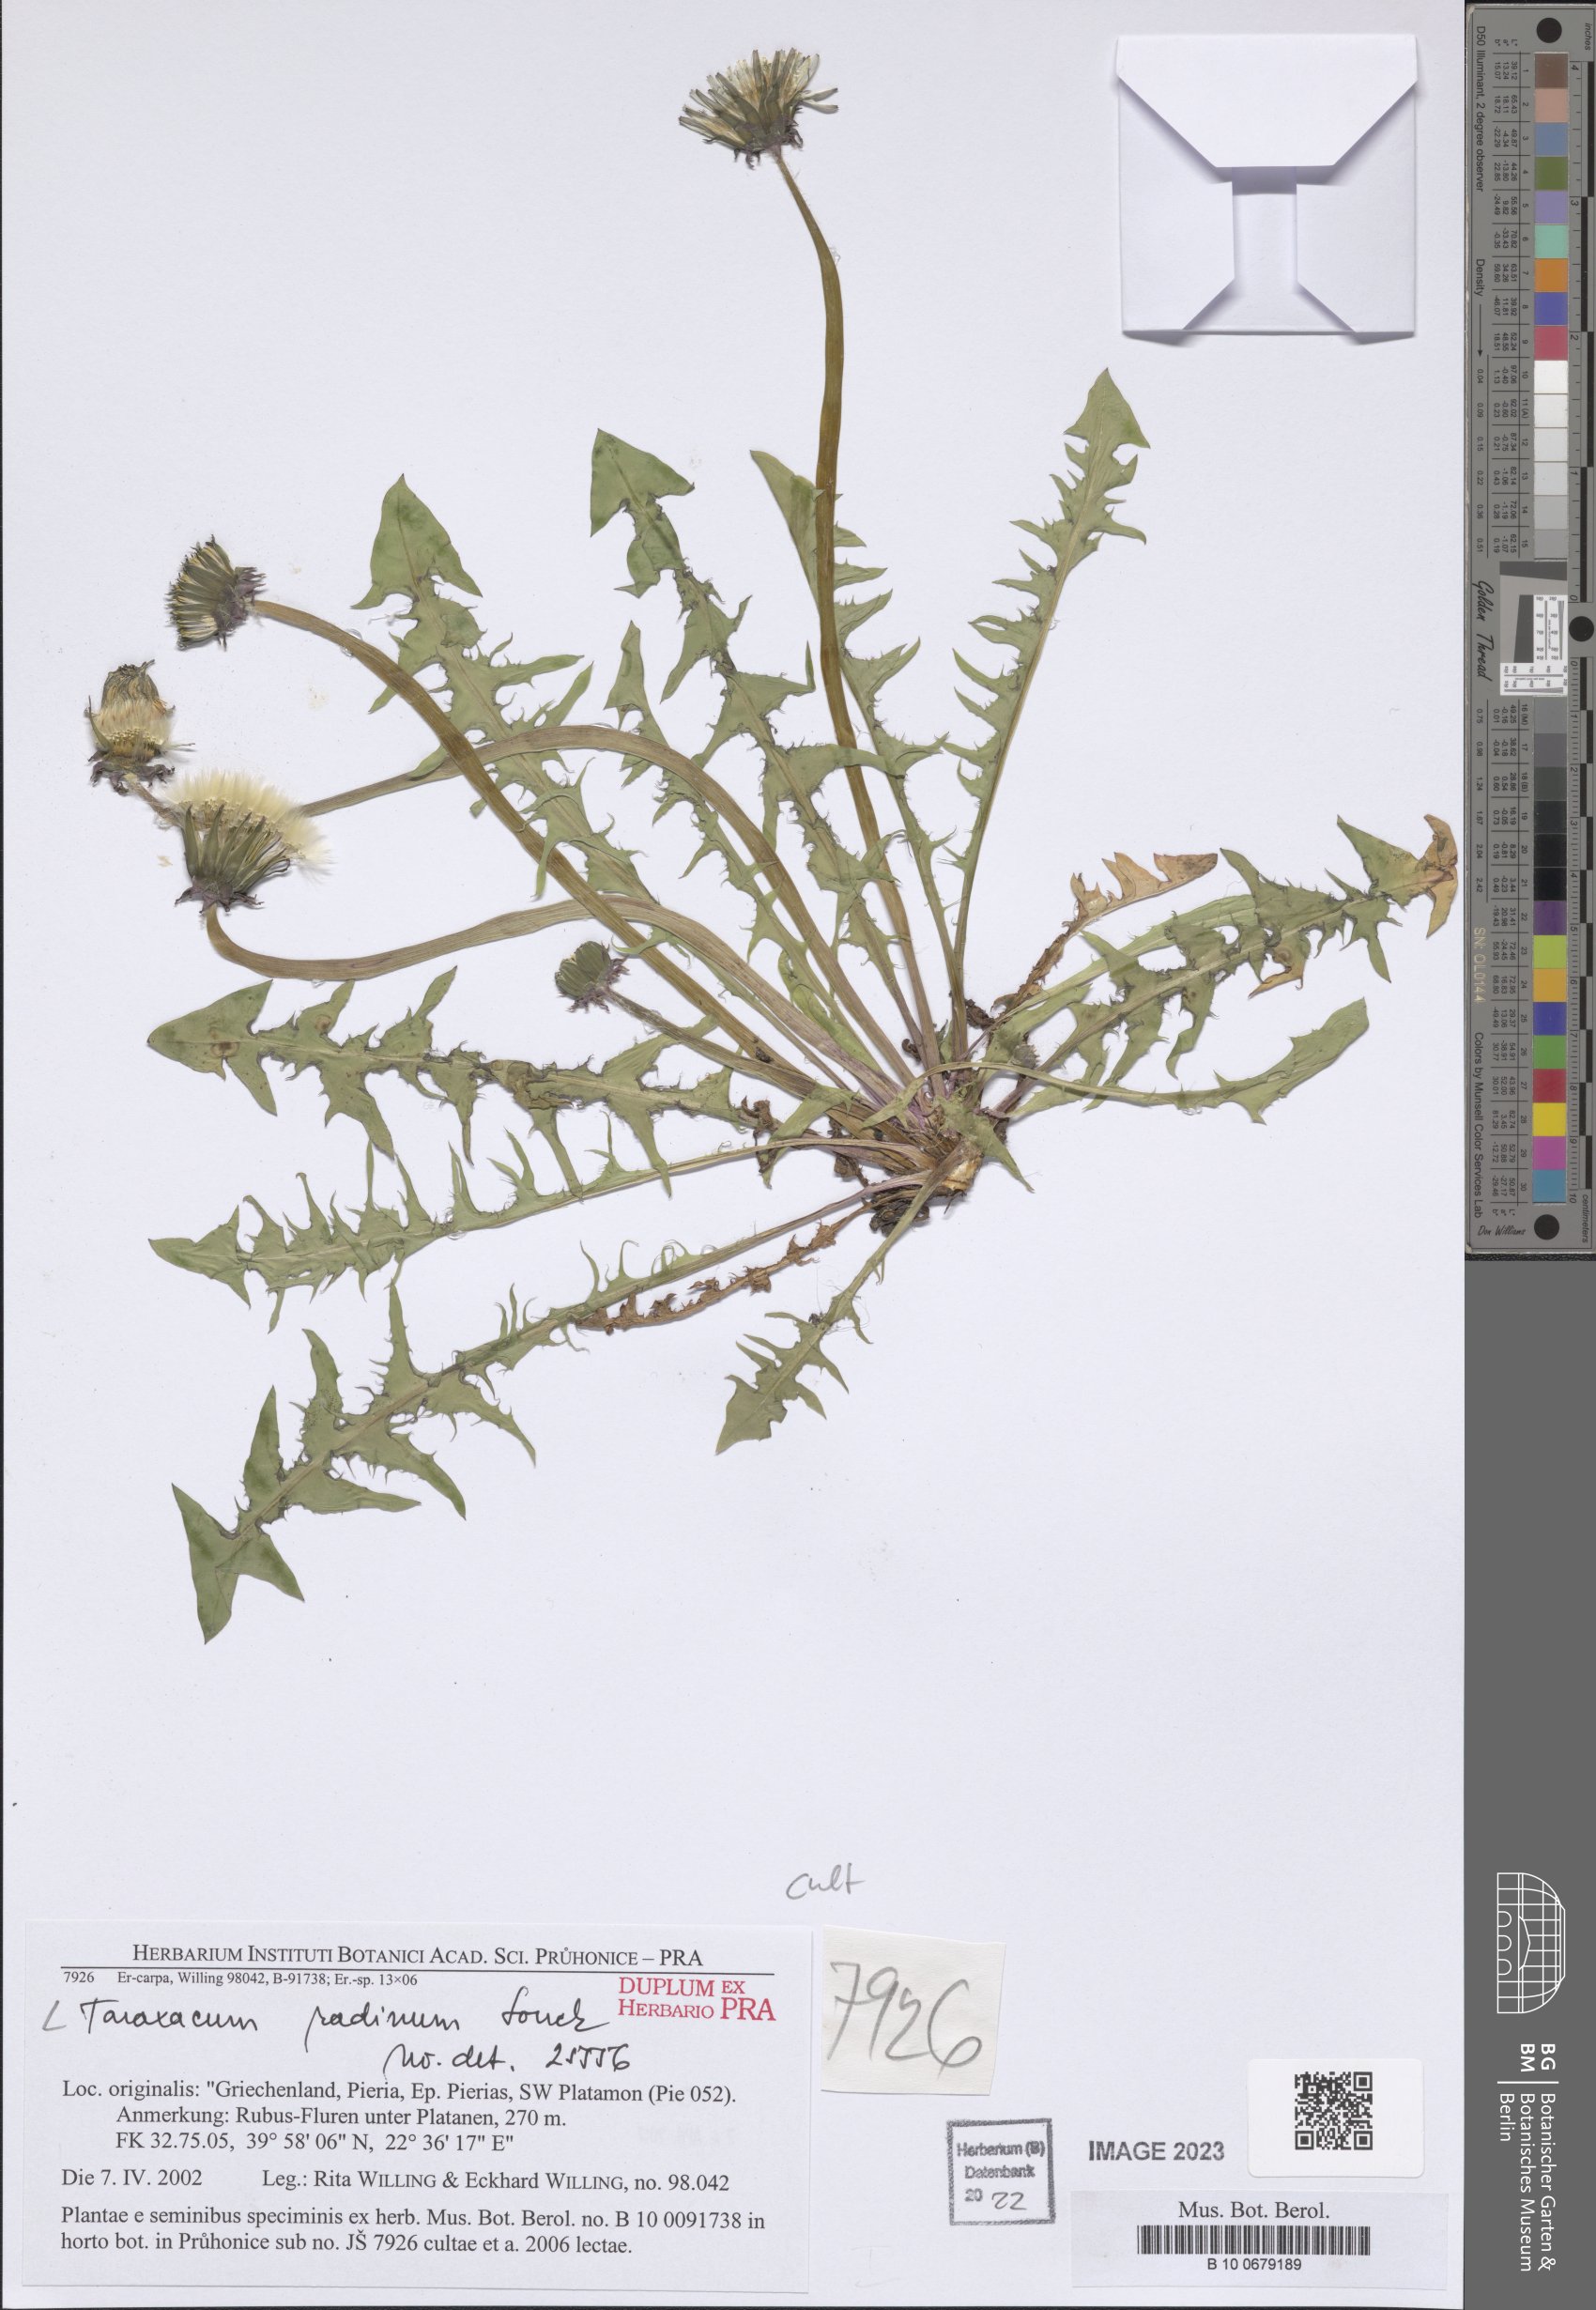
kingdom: Plantae
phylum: Tracheophyta
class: Magnoliopsida
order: Asterales
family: Asteraceae
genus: Taraxacum
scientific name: Taraxacum radinum
